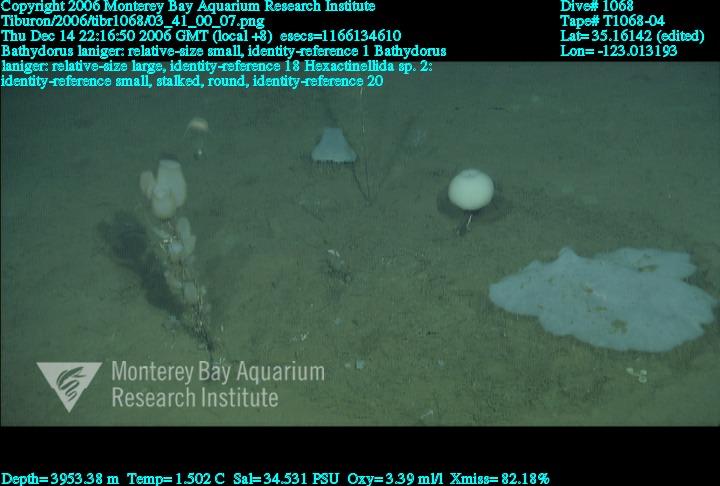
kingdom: Animalia
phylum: Porifera
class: Hexactinellida
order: Lyssacinosida
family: Rossellidae
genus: Bathydorus
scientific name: Bathydorus laniger
